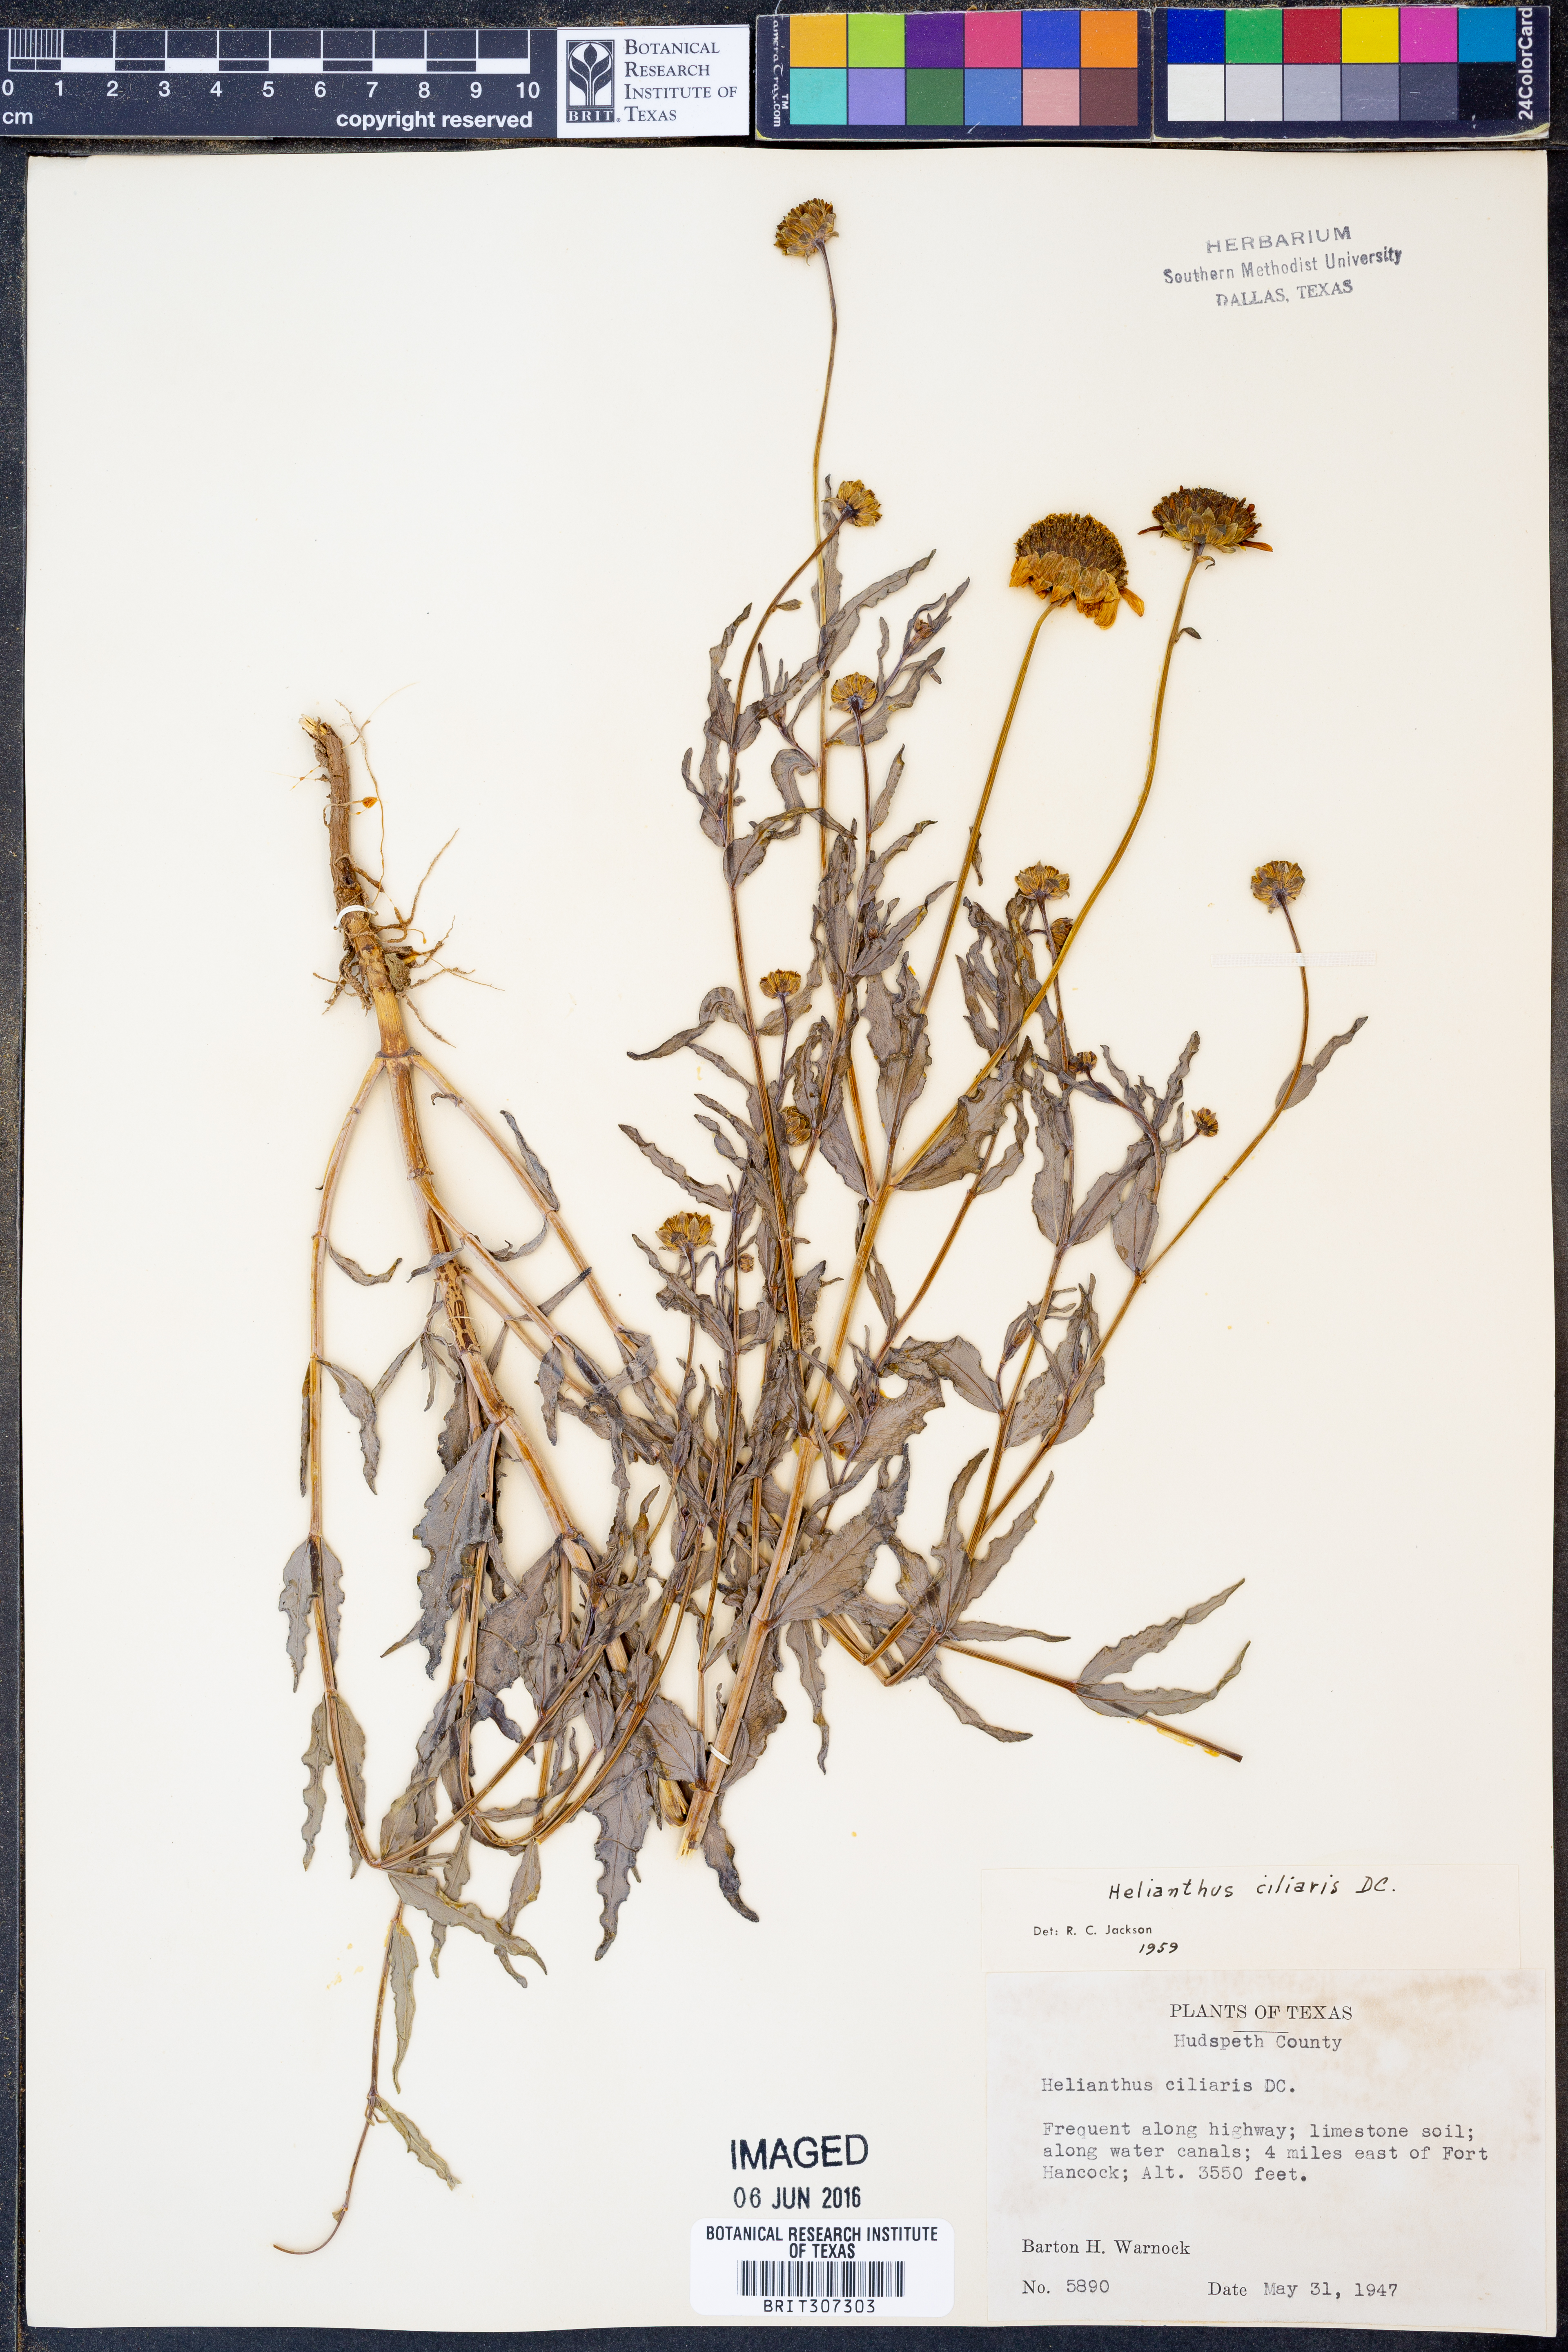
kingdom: Plantae
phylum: Tracheophyta
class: Magnoliopsida
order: Asterales
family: Asteraceae
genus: Helianthus
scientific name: Helianthus ciliaris
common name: Texas blueweed
